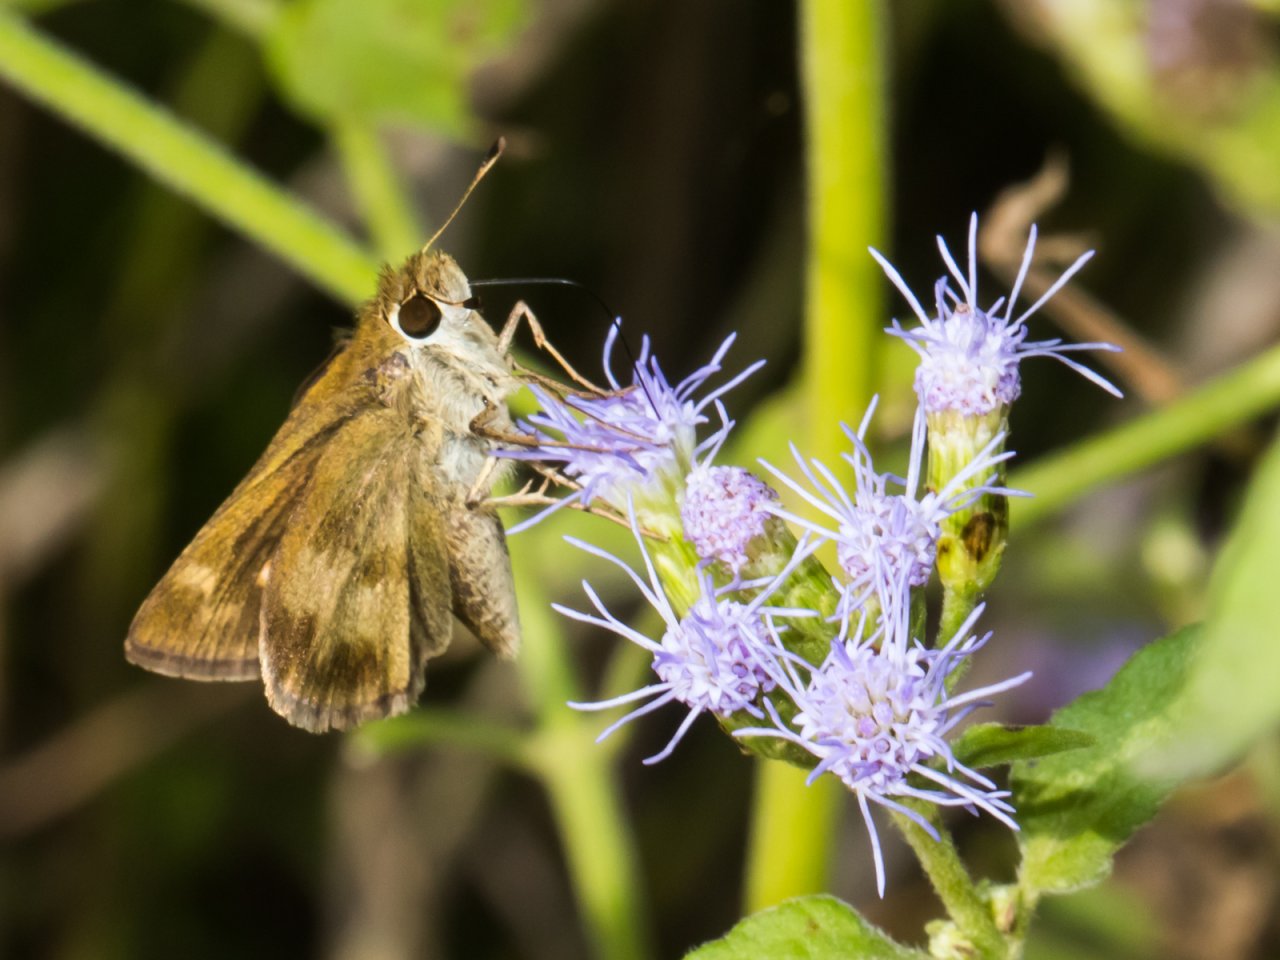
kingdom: Animalia
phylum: Arthropoda
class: Insecta
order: Lepidoptera
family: Hesperiidae
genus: Polites
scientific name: Polites vibex
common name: Whirlabout
